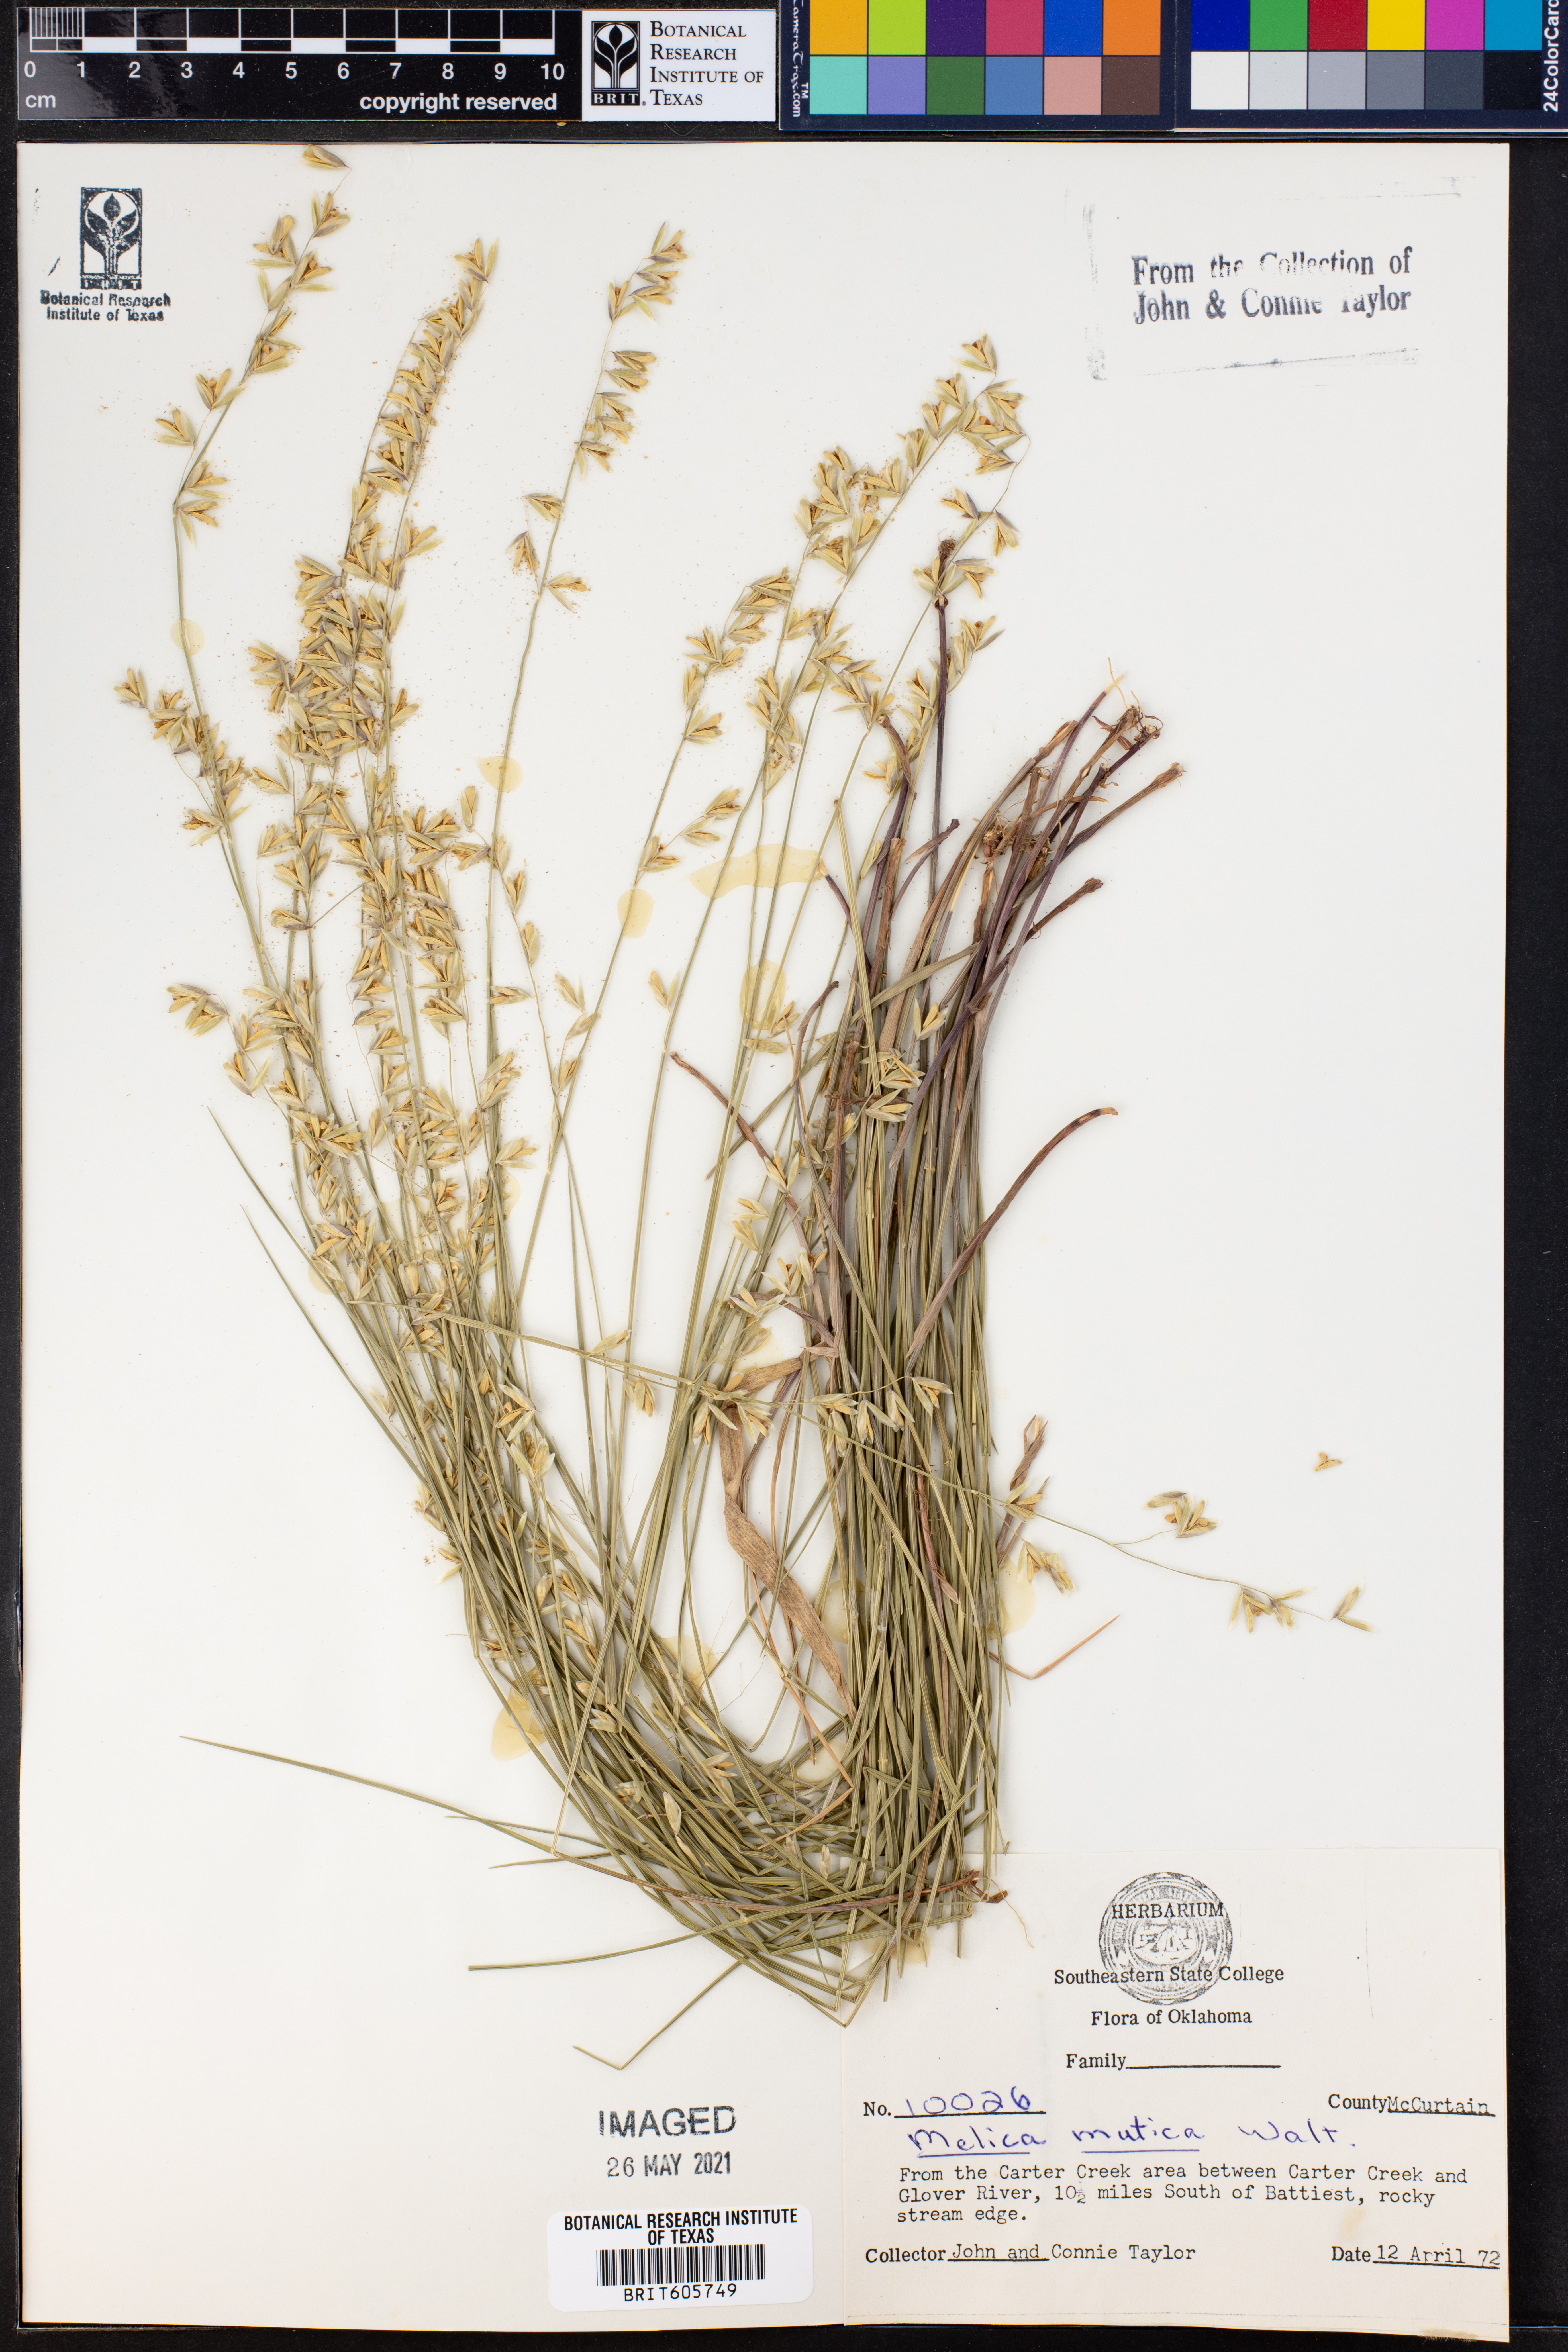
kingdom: Plantae
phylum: Tracheophyta
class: Liliopsida
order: Poales
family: Poaceae
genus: Melica
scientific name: Melica mutica
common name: Two-flower melic
